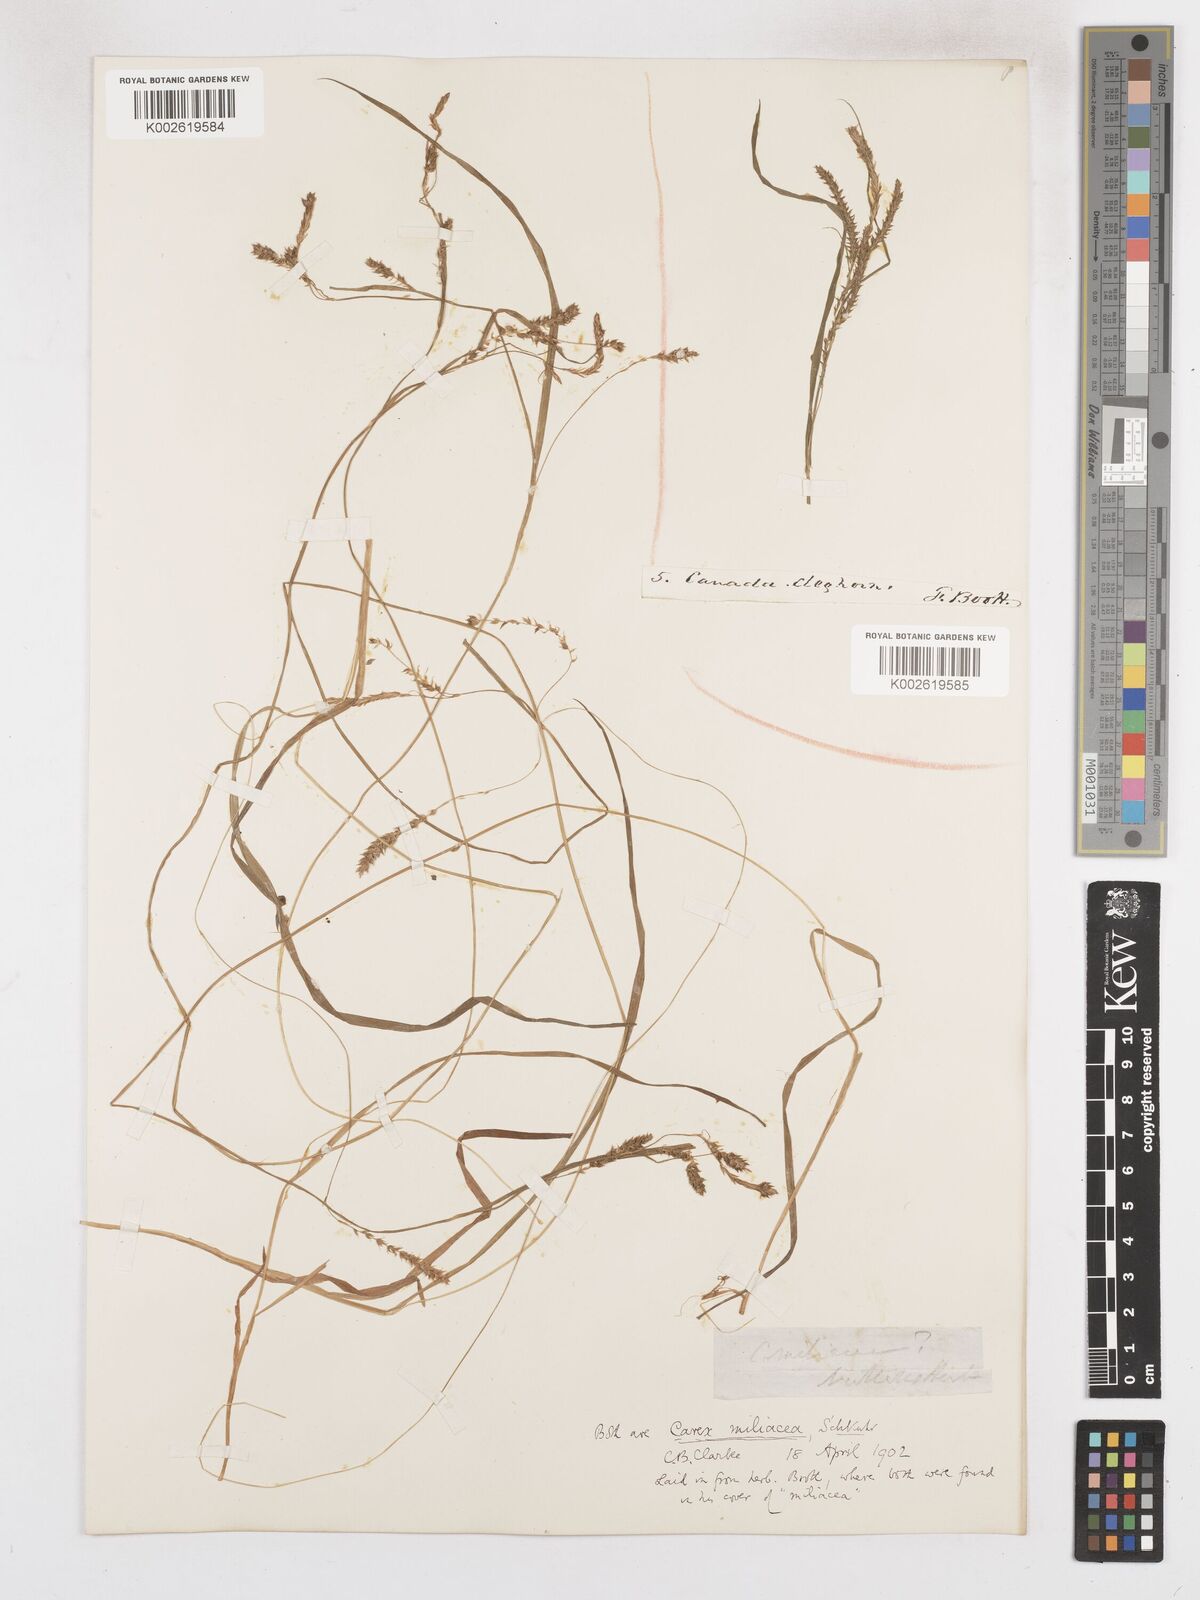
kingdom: Plantae
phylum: Tracheophyta
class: Liliopsida
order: Poales
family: Cyperaceae
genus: Carex
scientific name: Carex prasina
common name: Drooping sedge
